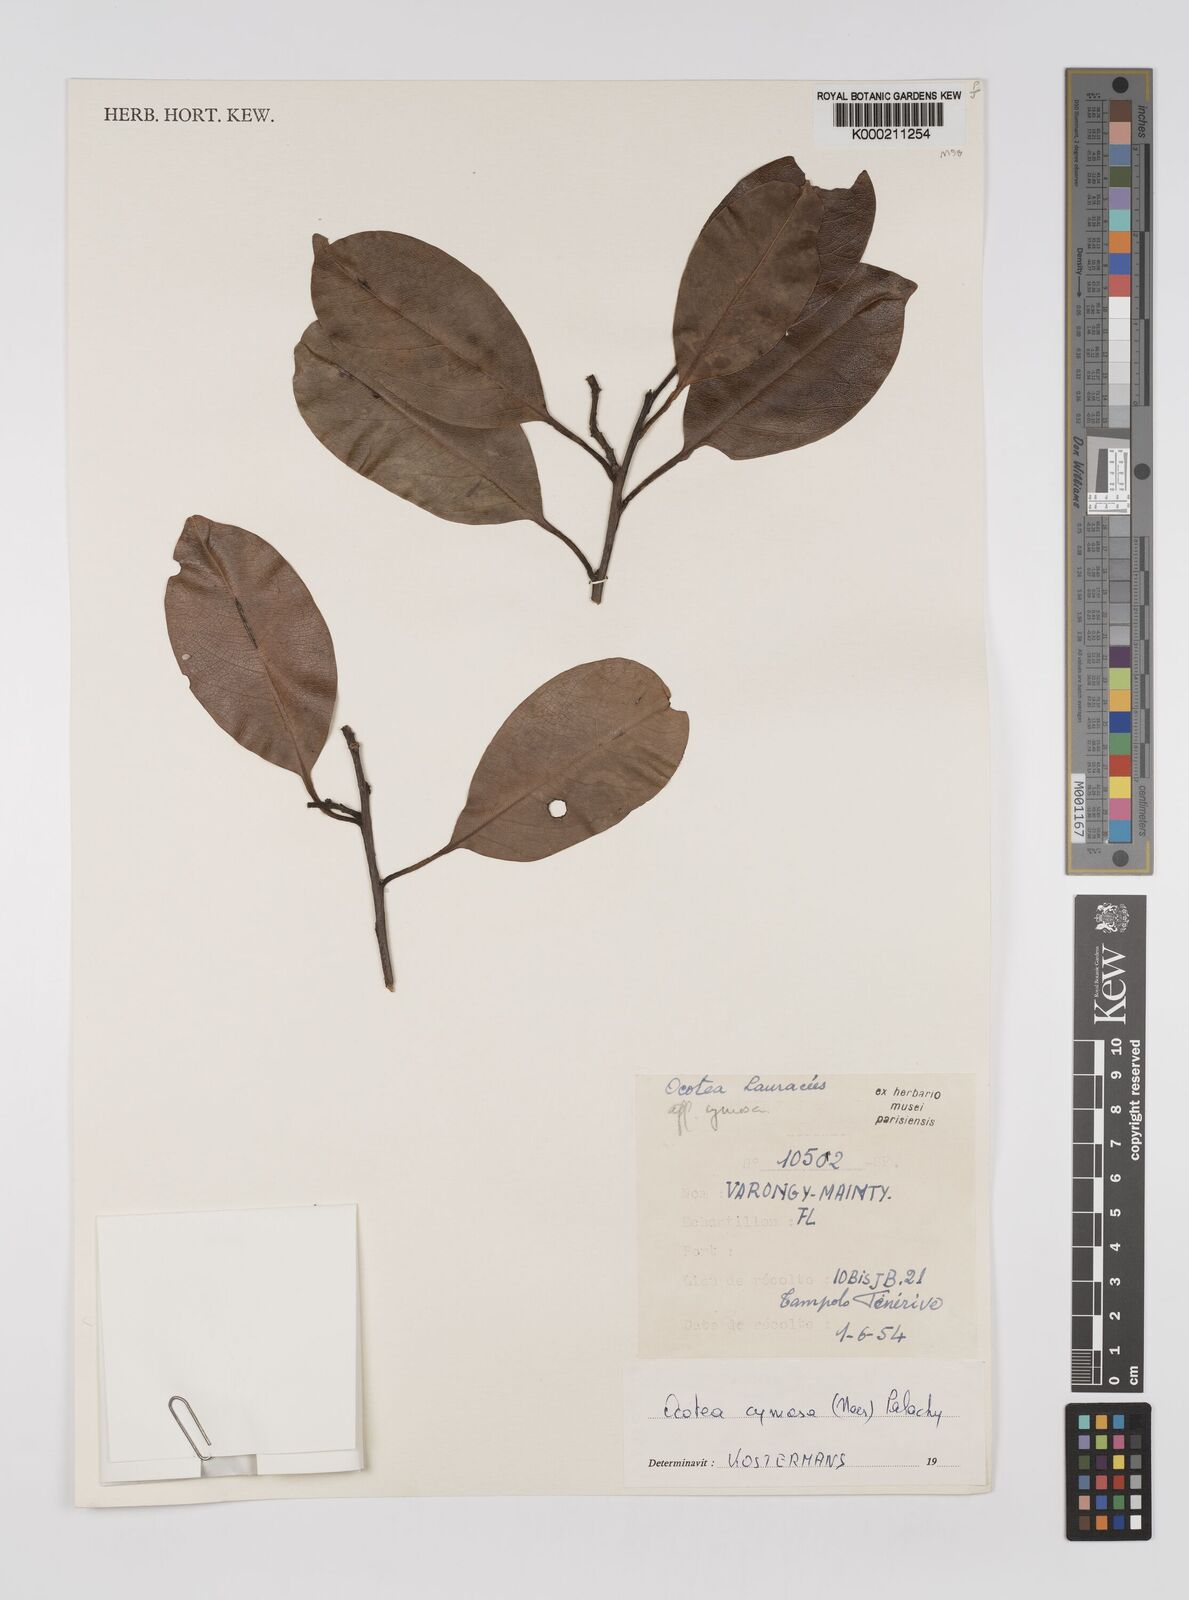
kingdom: Plantae
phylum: Tracheophyta
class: Magnoliopsida
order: Laurales
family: Lauraceae
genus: Mespilodaphne
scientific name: Mespilodaphne cymosa
